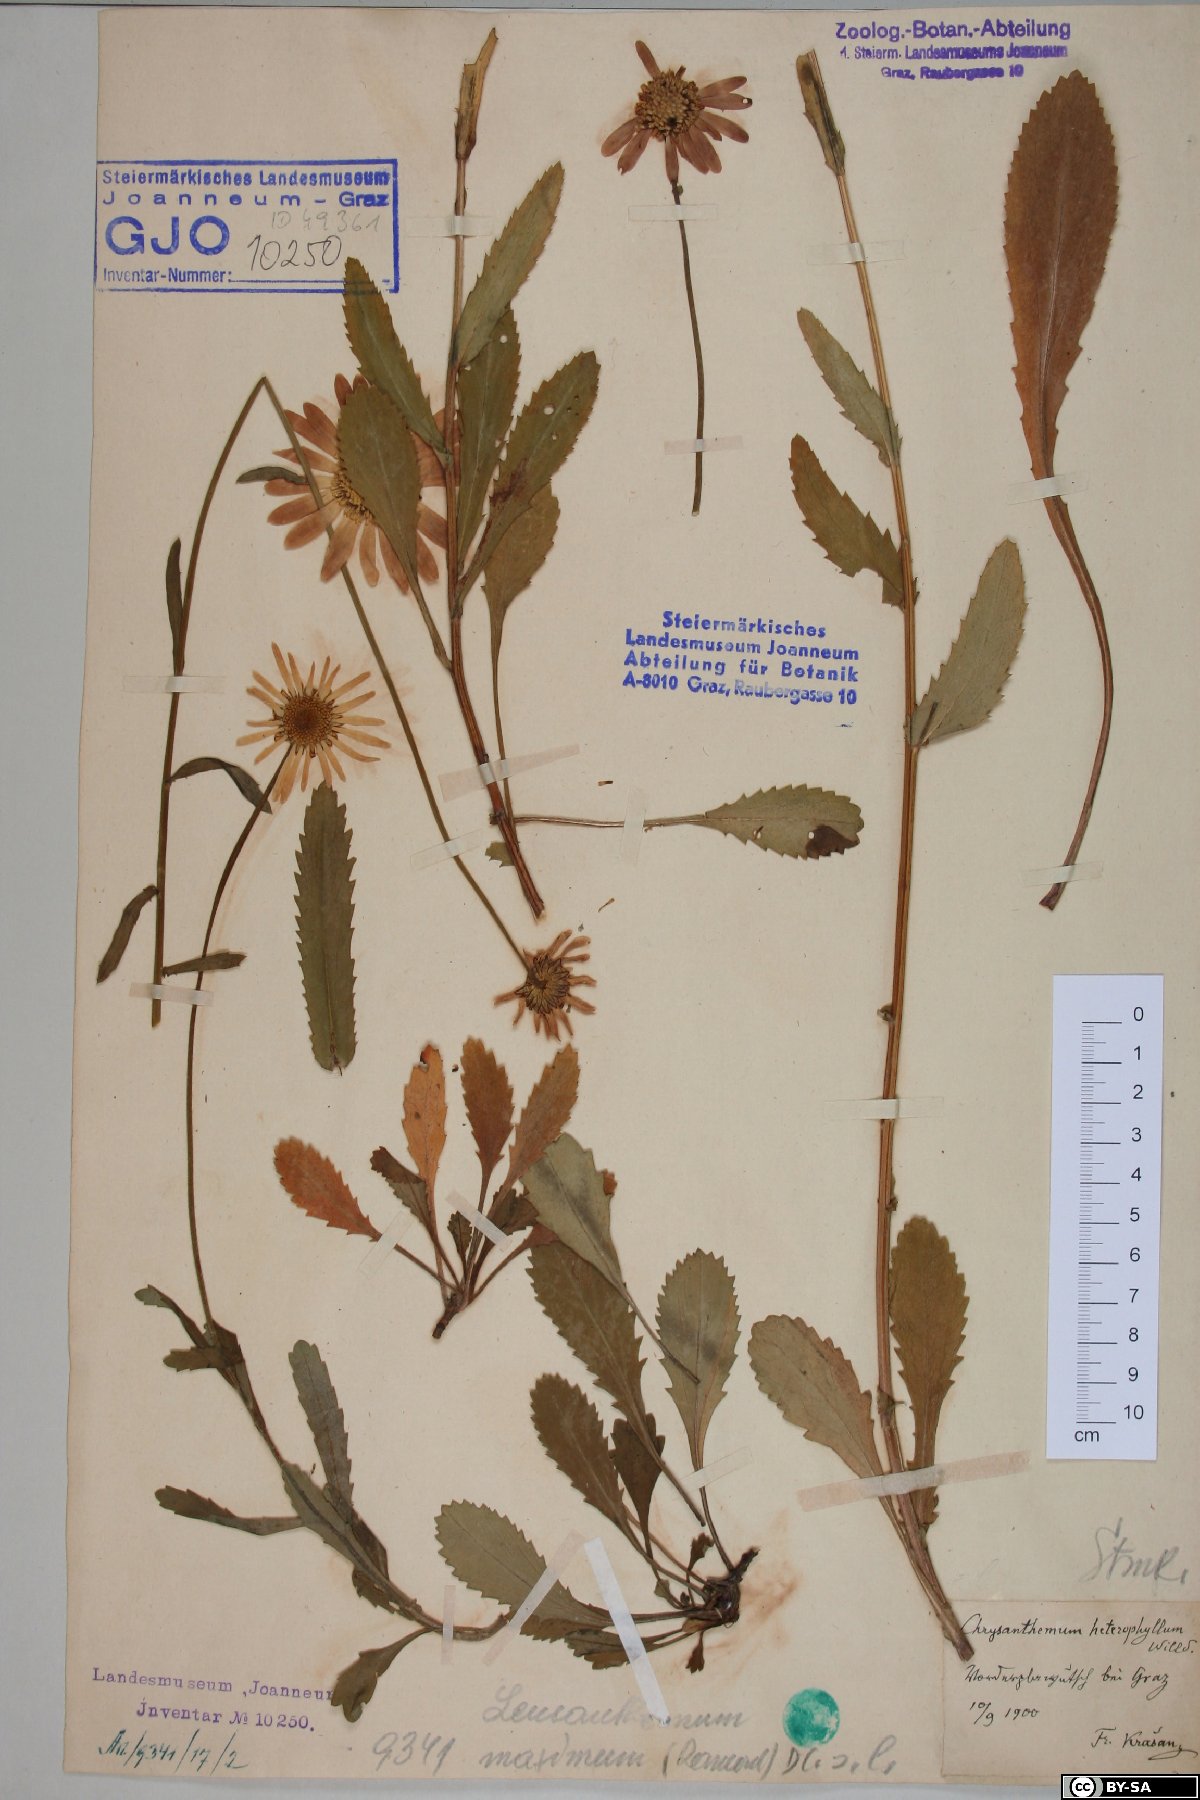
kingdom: Plantae
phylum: Tracheophyta
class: Magnoliopsida
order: Asterales
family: Asteraceae
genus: Leucanthemum
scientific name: Leucanthemum heterophyllum
